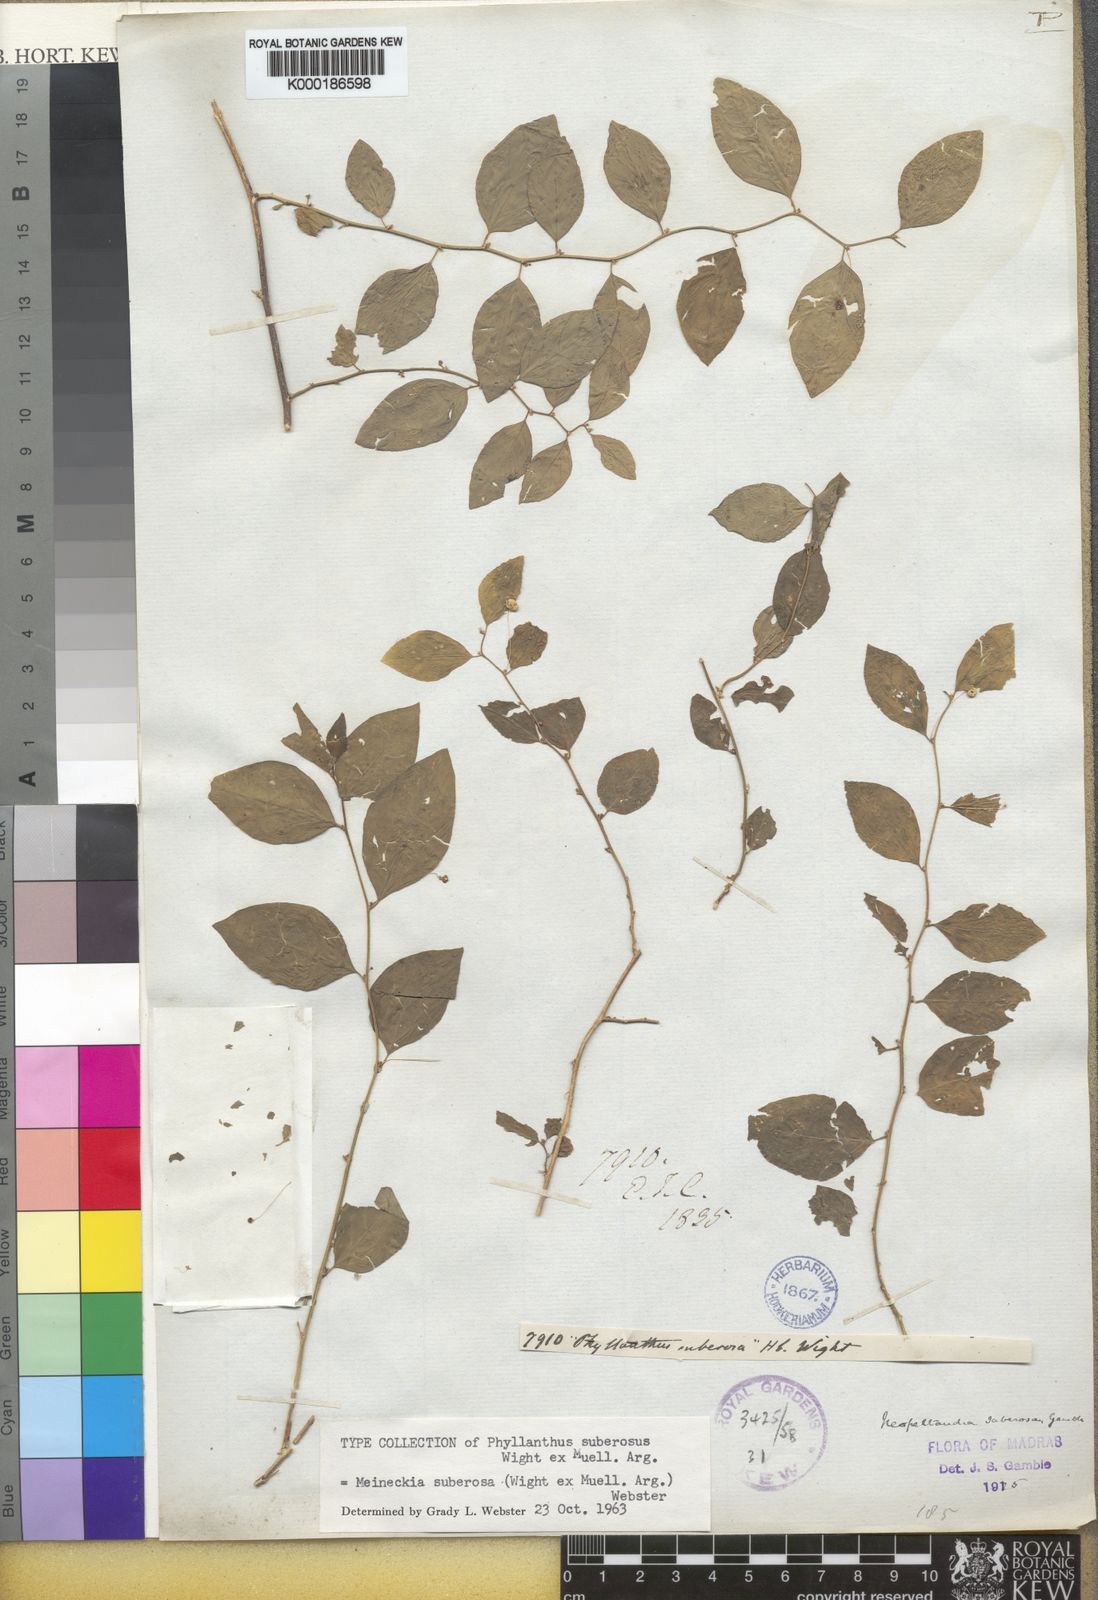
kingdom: Plantae
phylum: Tracheophyta
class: Magnoliopsida
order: Malpighiales
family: Phyllanthaceae
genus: Meineckia
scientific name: Meineckia parvifolia
